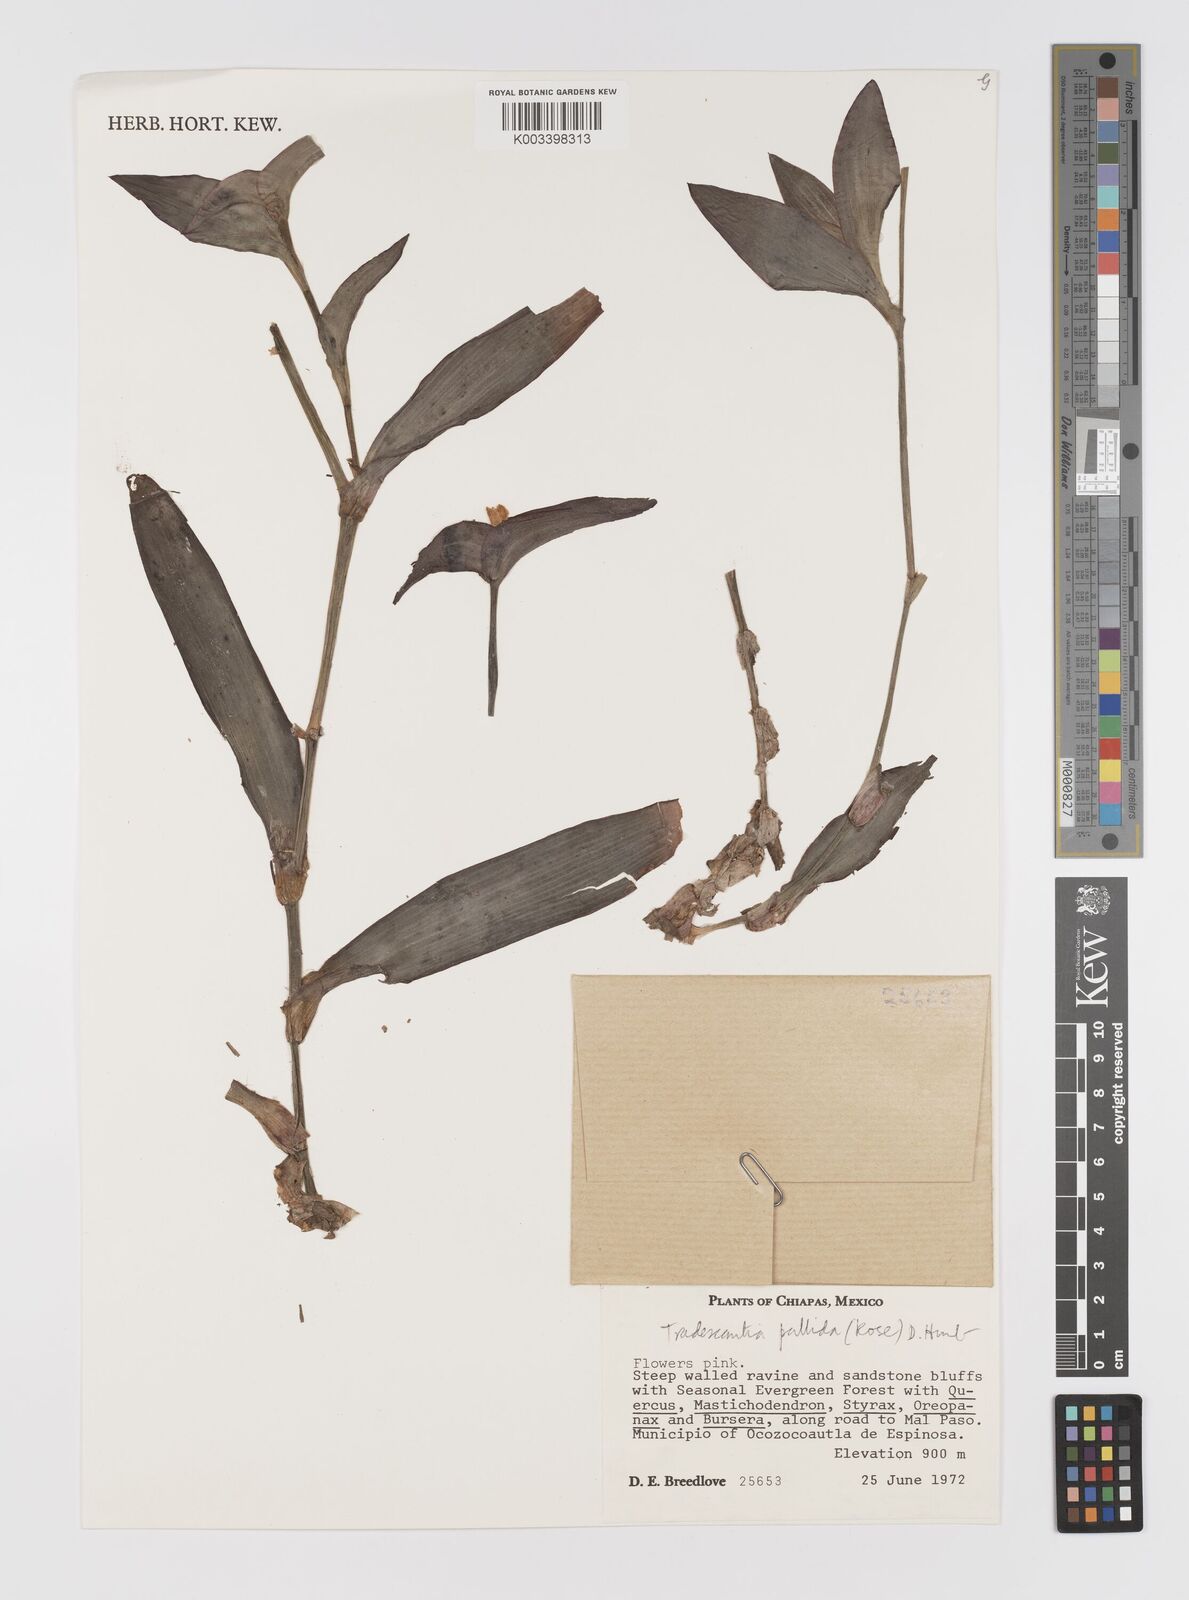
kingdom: Plantae
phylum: Tracheophyta
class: Liliopsida
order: Commelinales
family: Commelinaceae
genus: Tradescantia
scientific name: Tradescantia pallida
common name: Purpleheart
